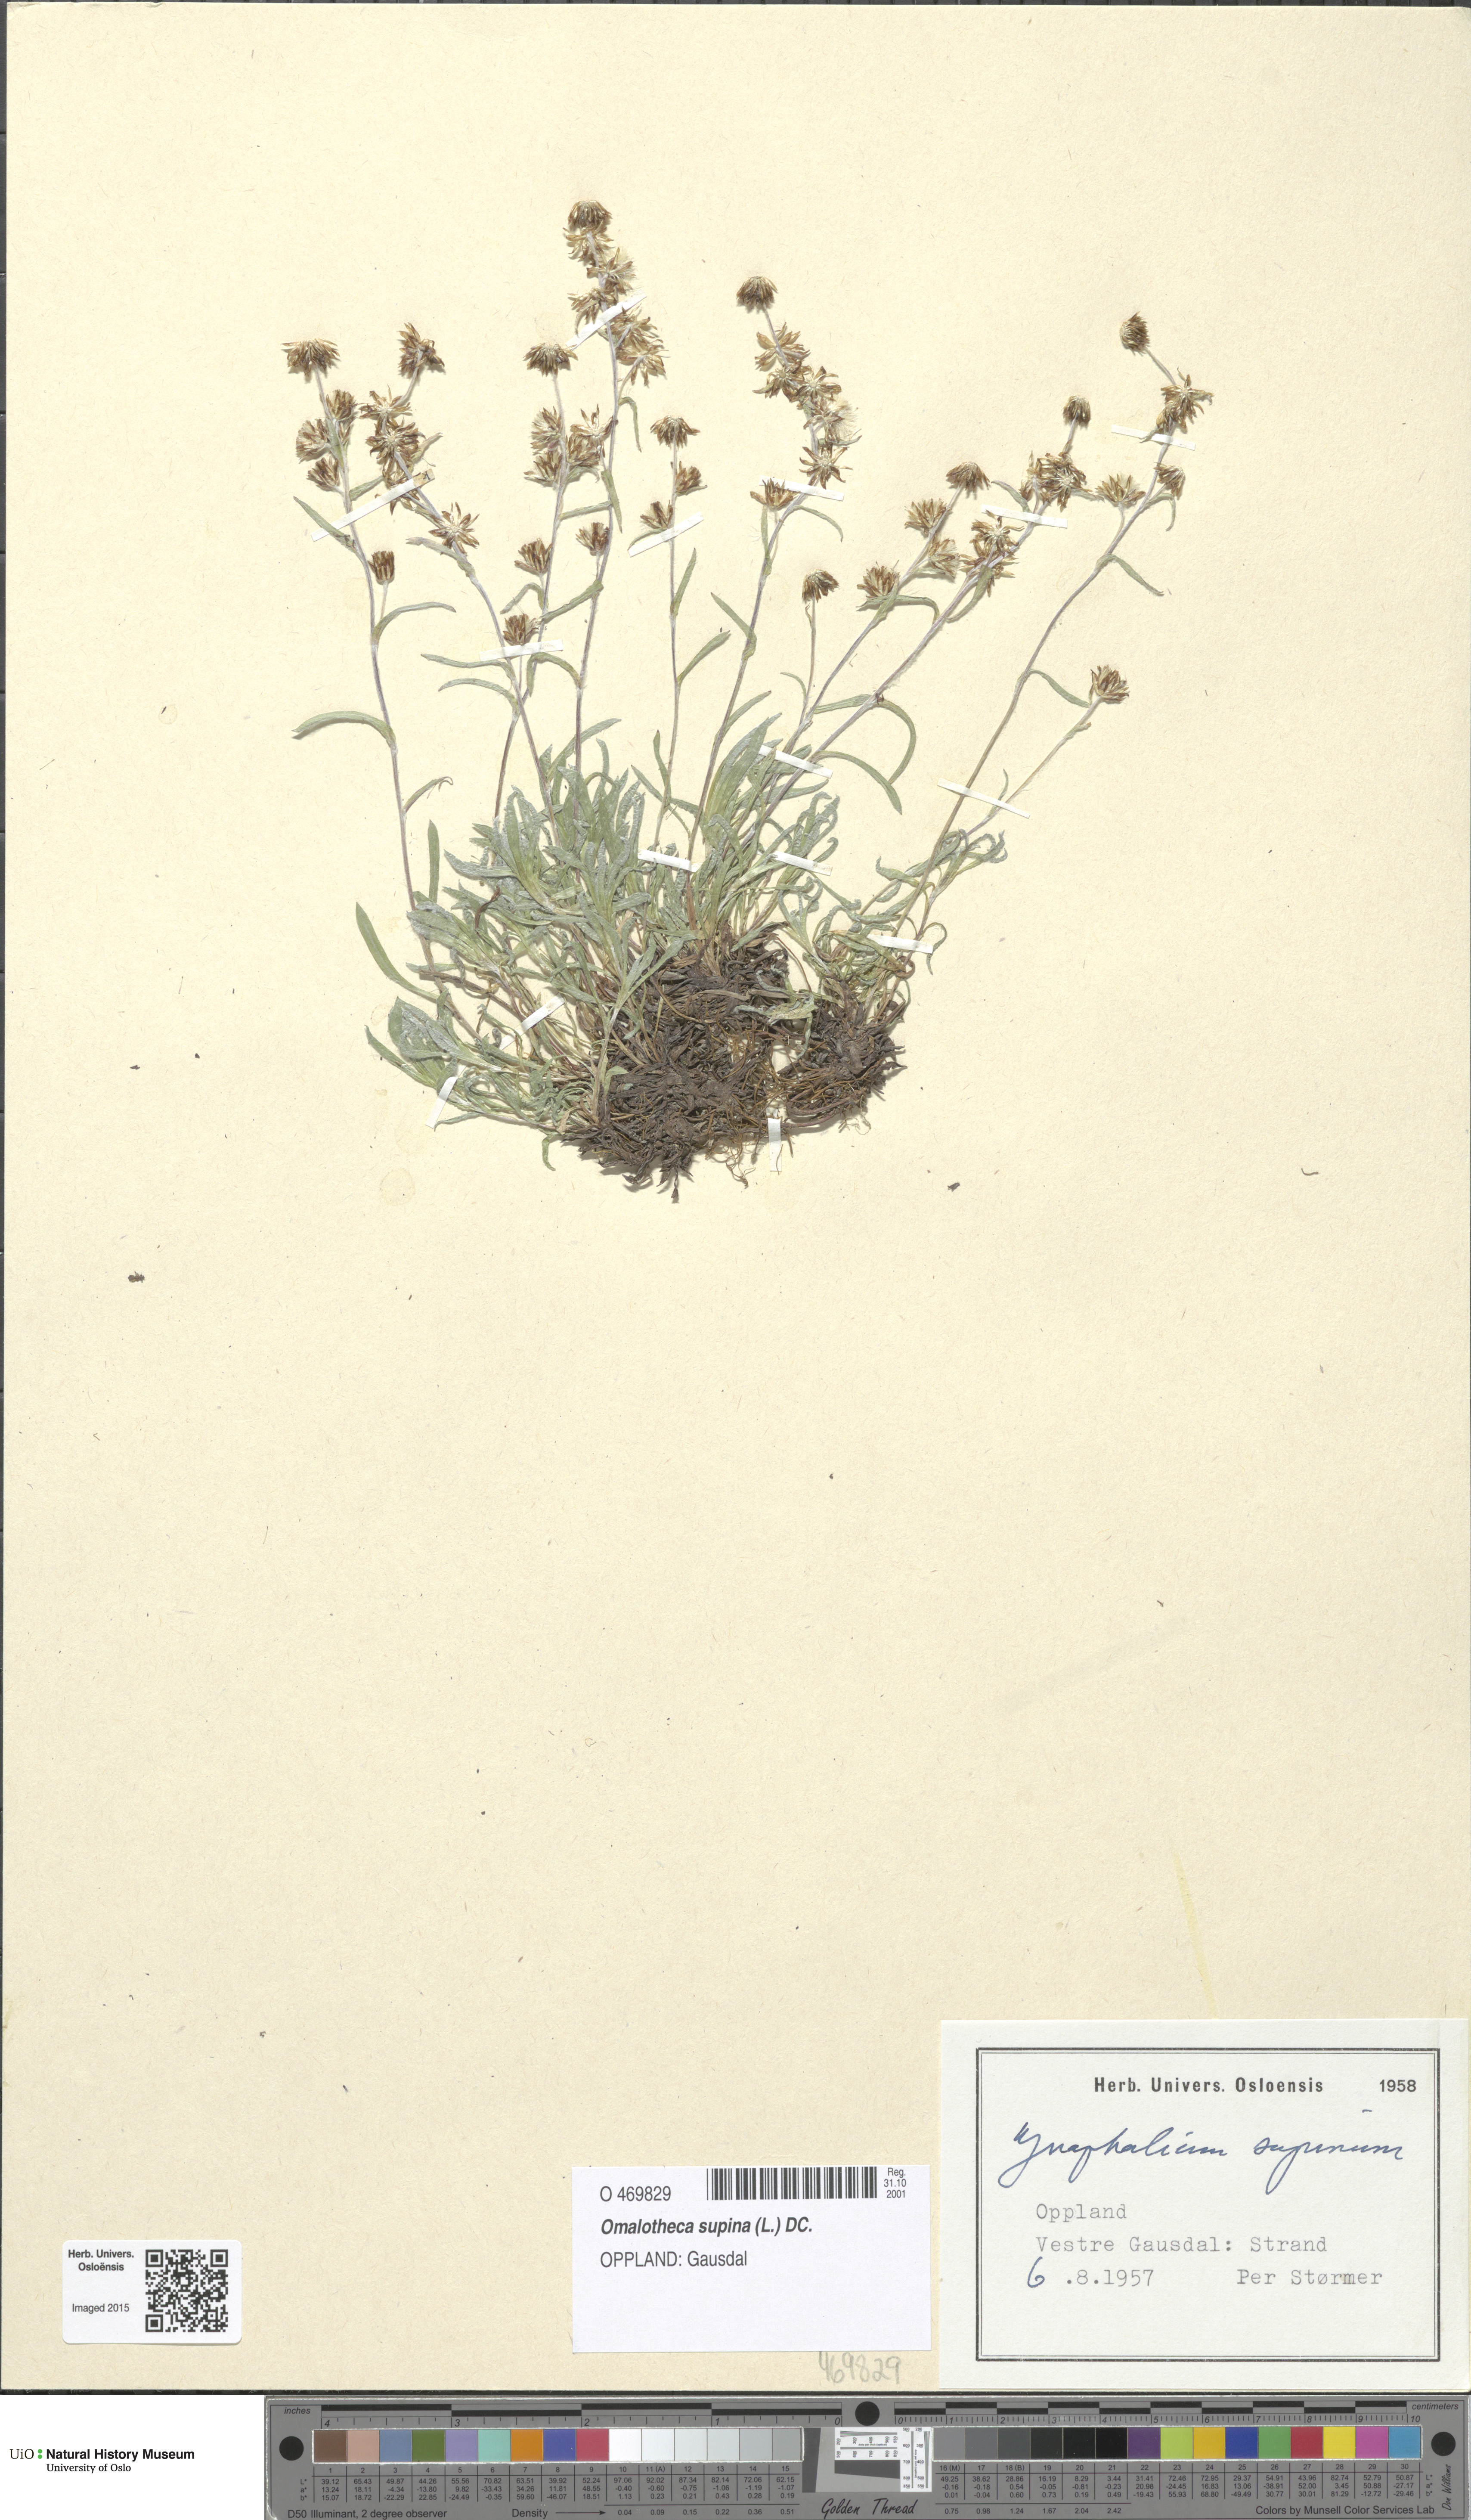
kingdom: Plantae
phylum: Tracheophyta
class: Magnoliopsida
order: Asterales
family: Asteraceae
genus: Omalotheca
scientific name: Omalotheca supina
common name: Alpine arctic-cudweed
